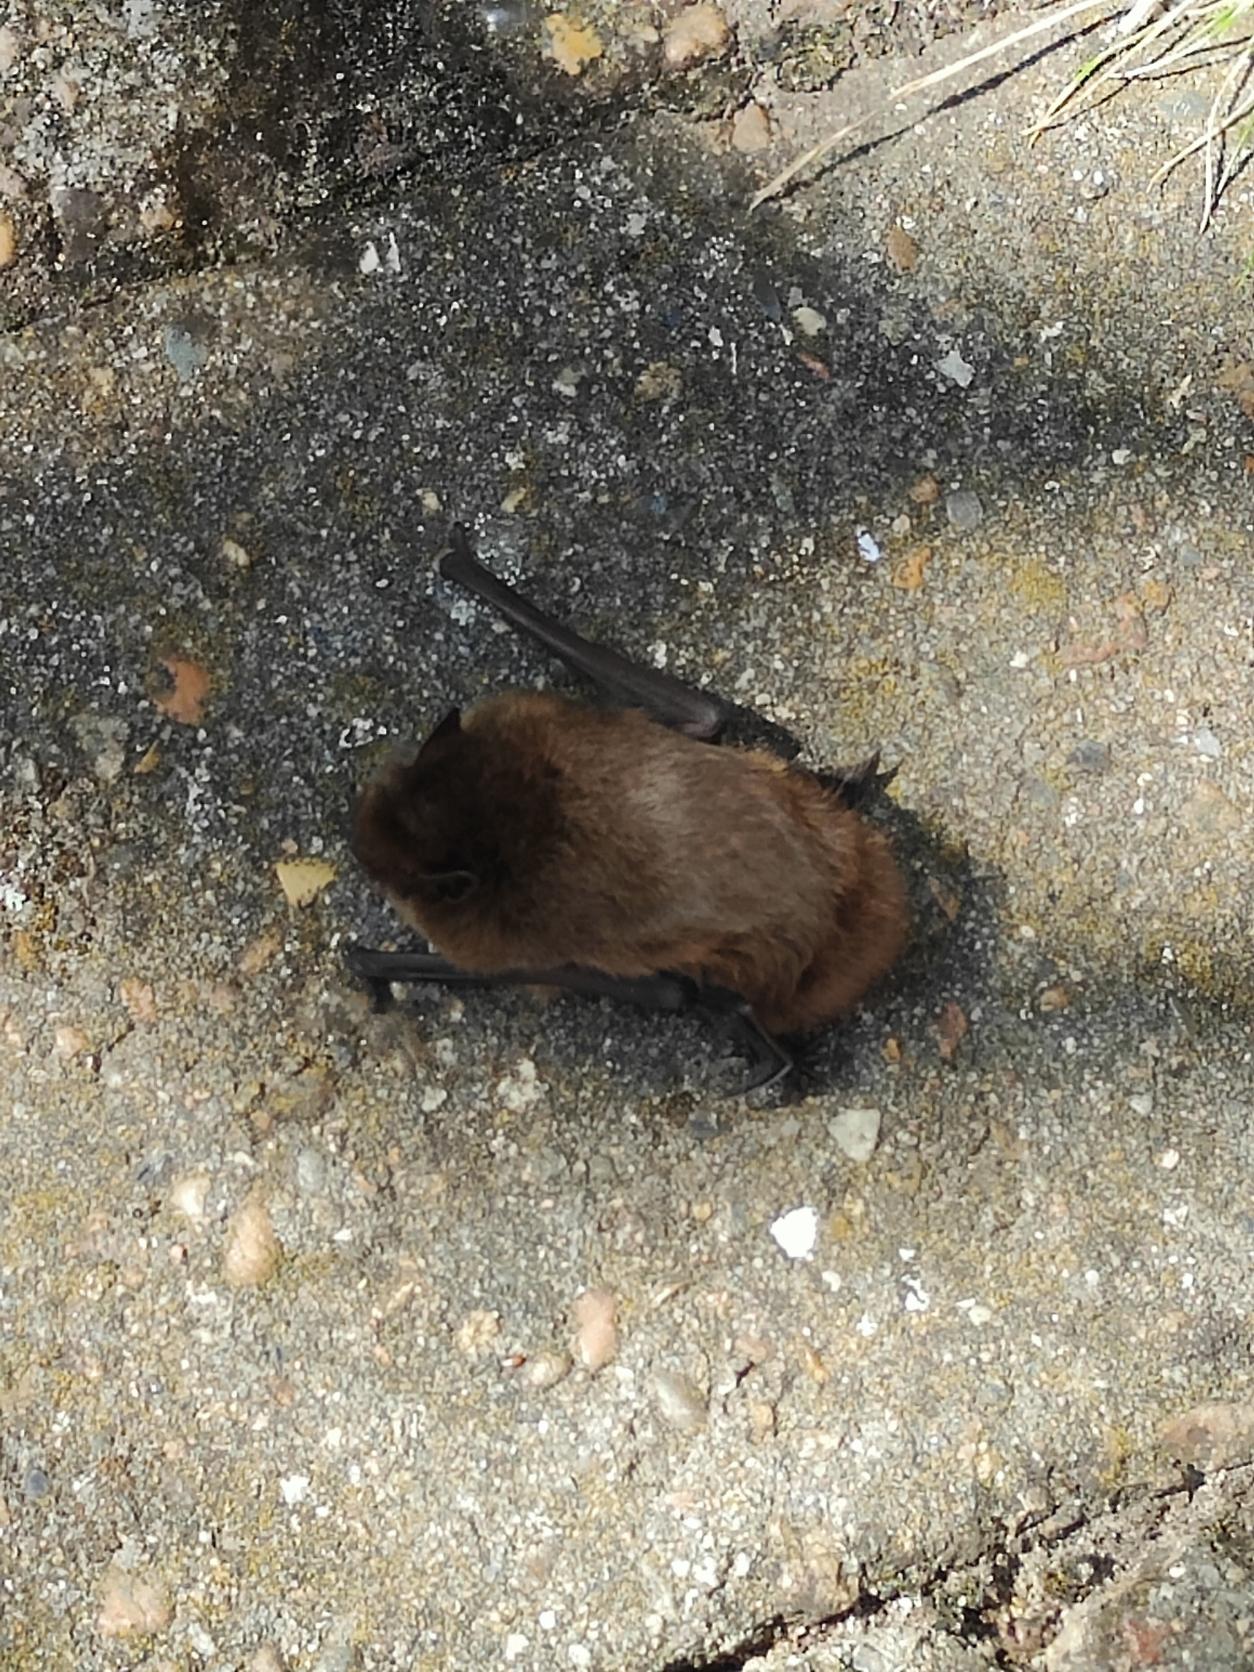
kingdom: Animalia
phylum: Chordata
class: Mammalia
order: Chiroptera
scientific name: Chiroptera
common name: Flagermus
